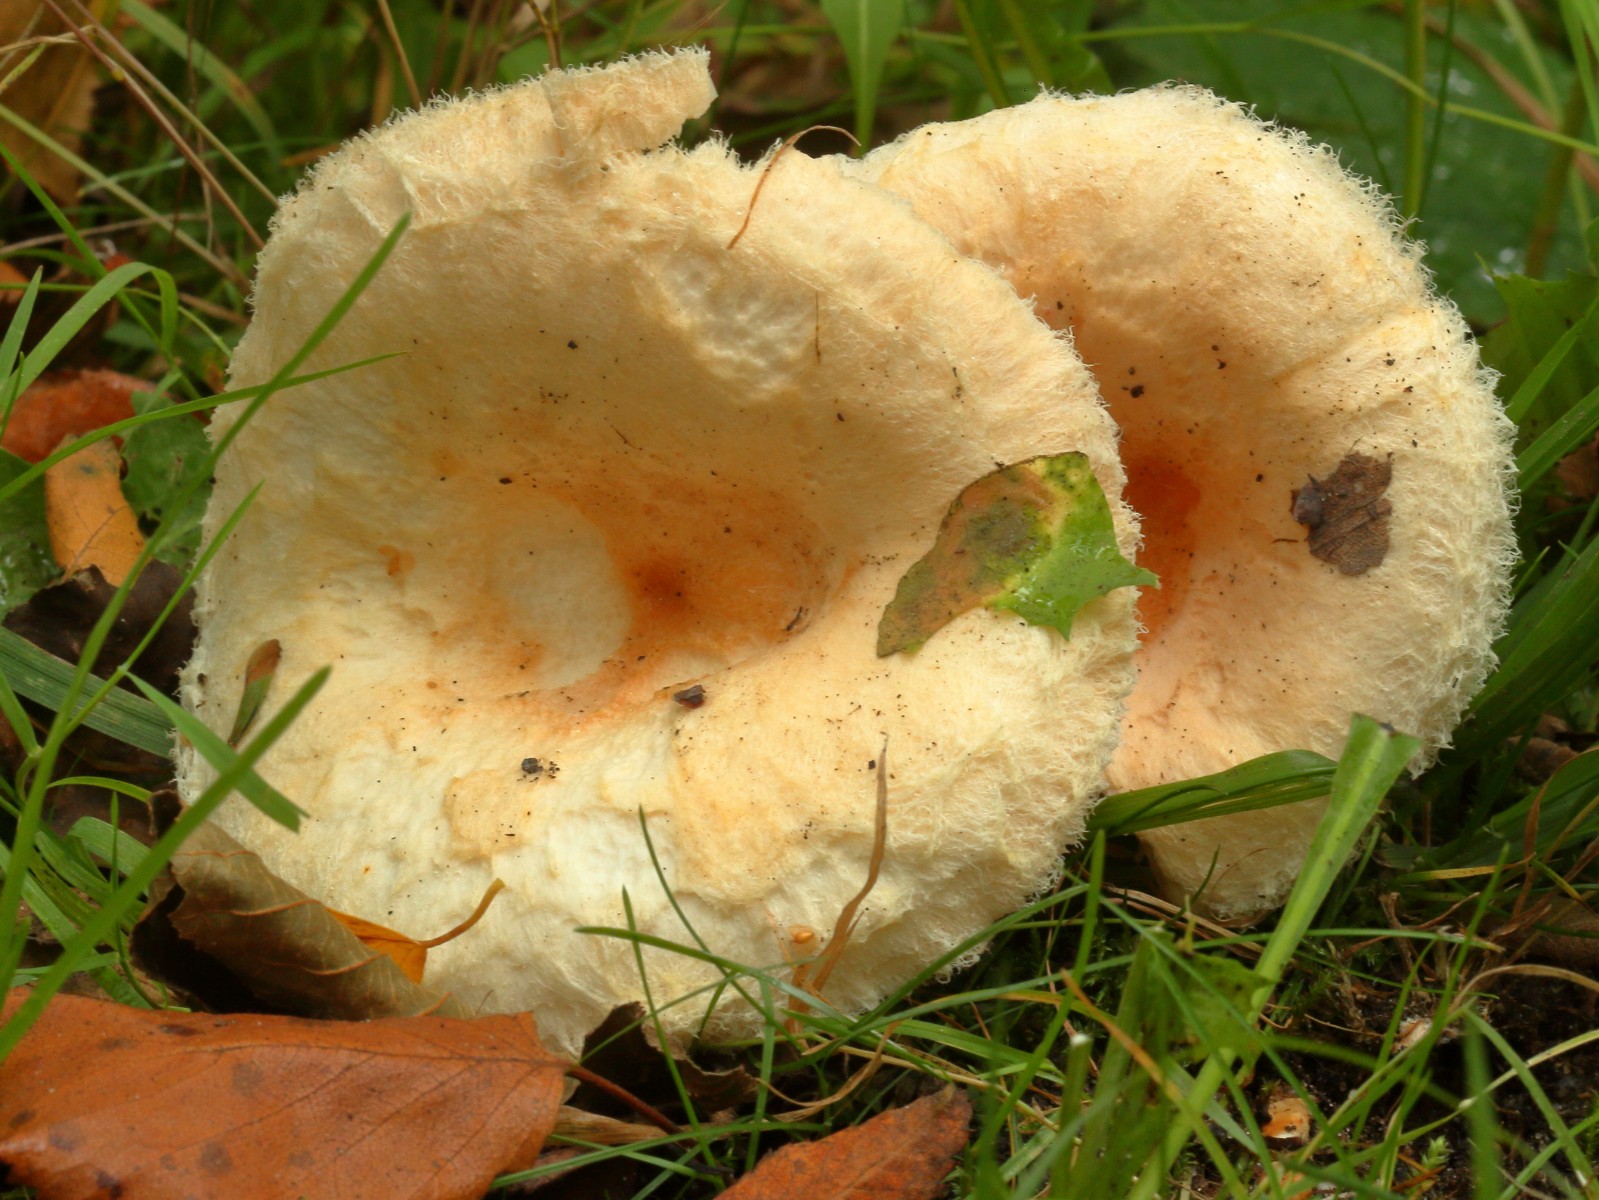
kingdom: Fungi
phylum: Basidiomycota
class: Agaricomycetes
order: Russulales
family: Russulaceae
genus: Lactarius
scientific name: Lactarius pubescens
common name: dunet mælkehat
